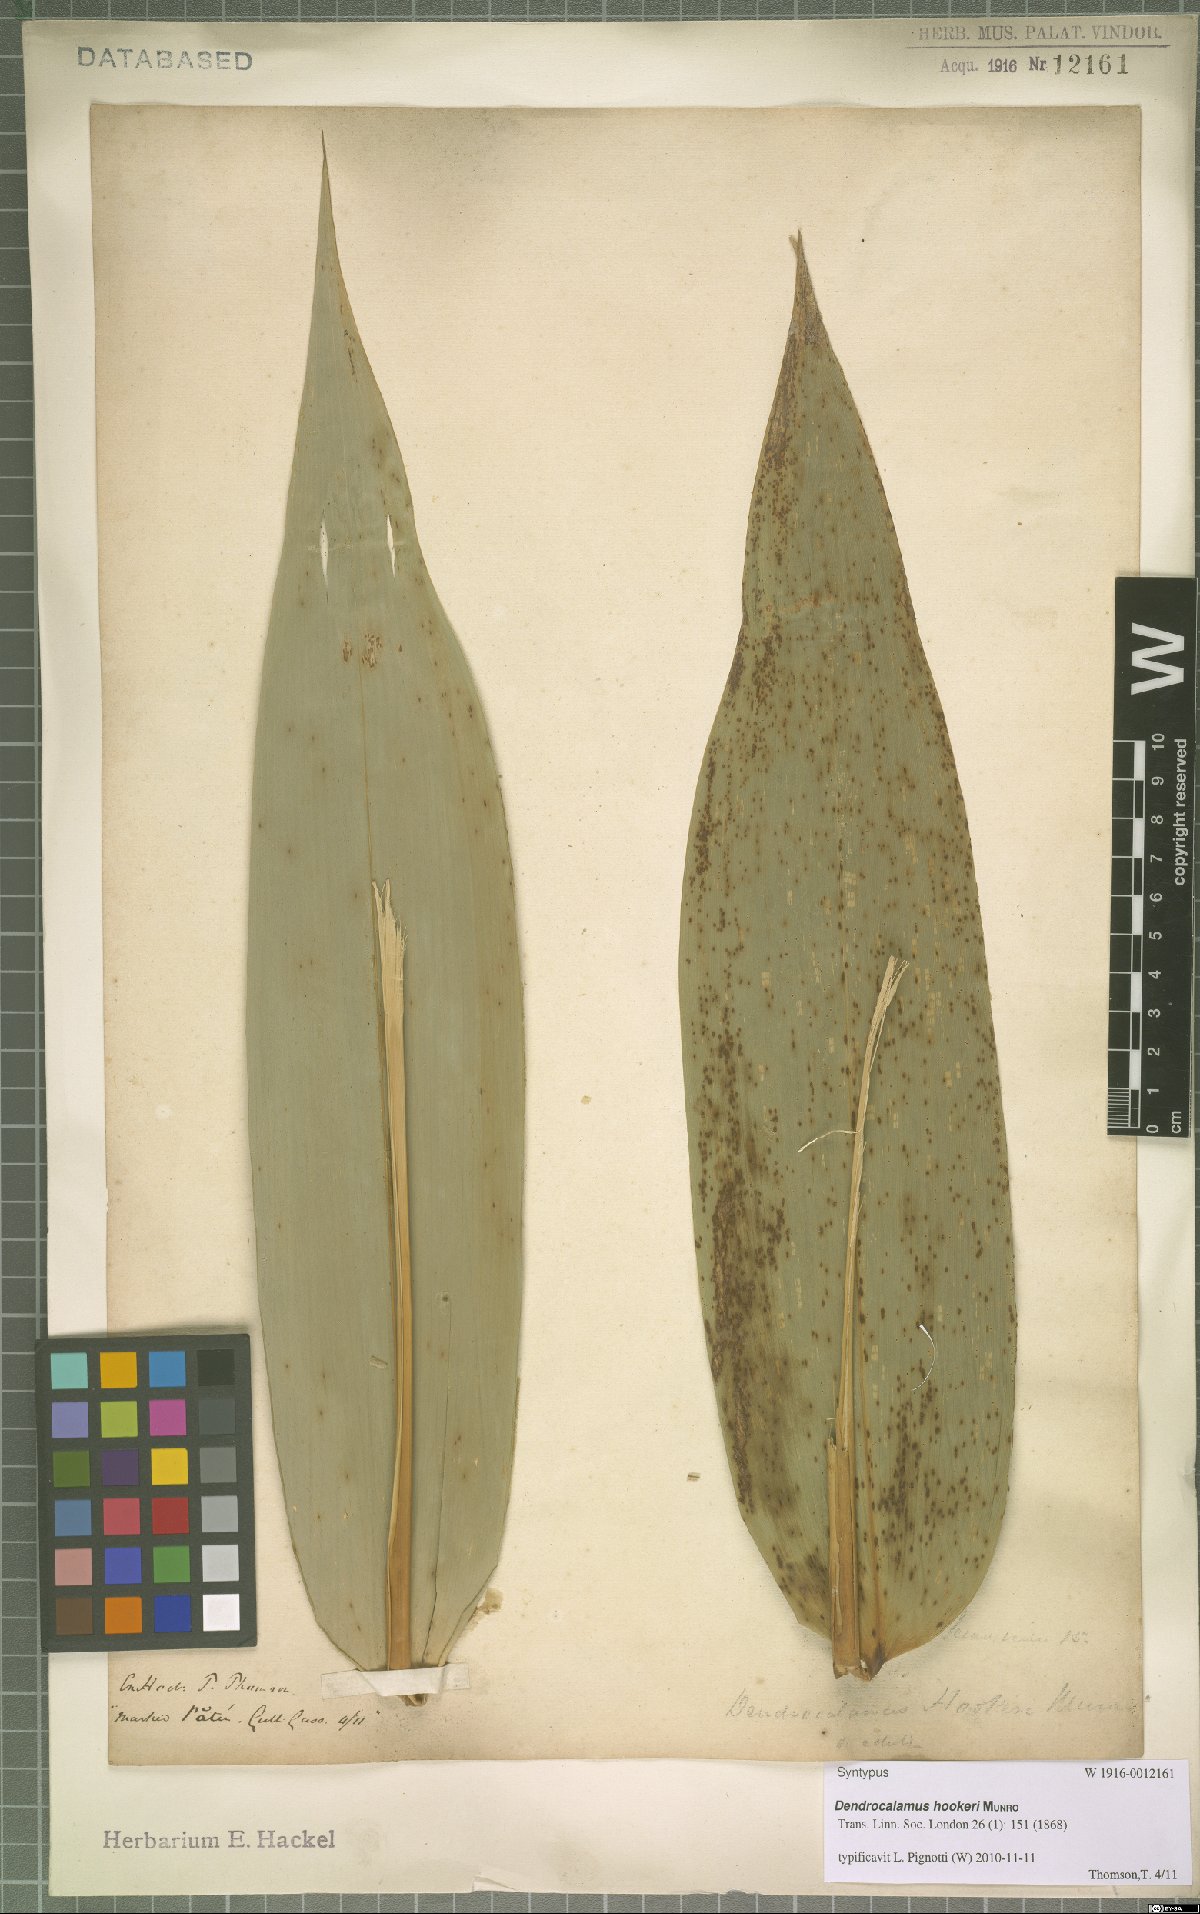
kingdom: Plantae
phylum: Tracheophyta
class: Liliopsida
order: Poales
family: Poaceae
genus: Dendrocalamus
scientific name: Dendrocalamus hookeri
